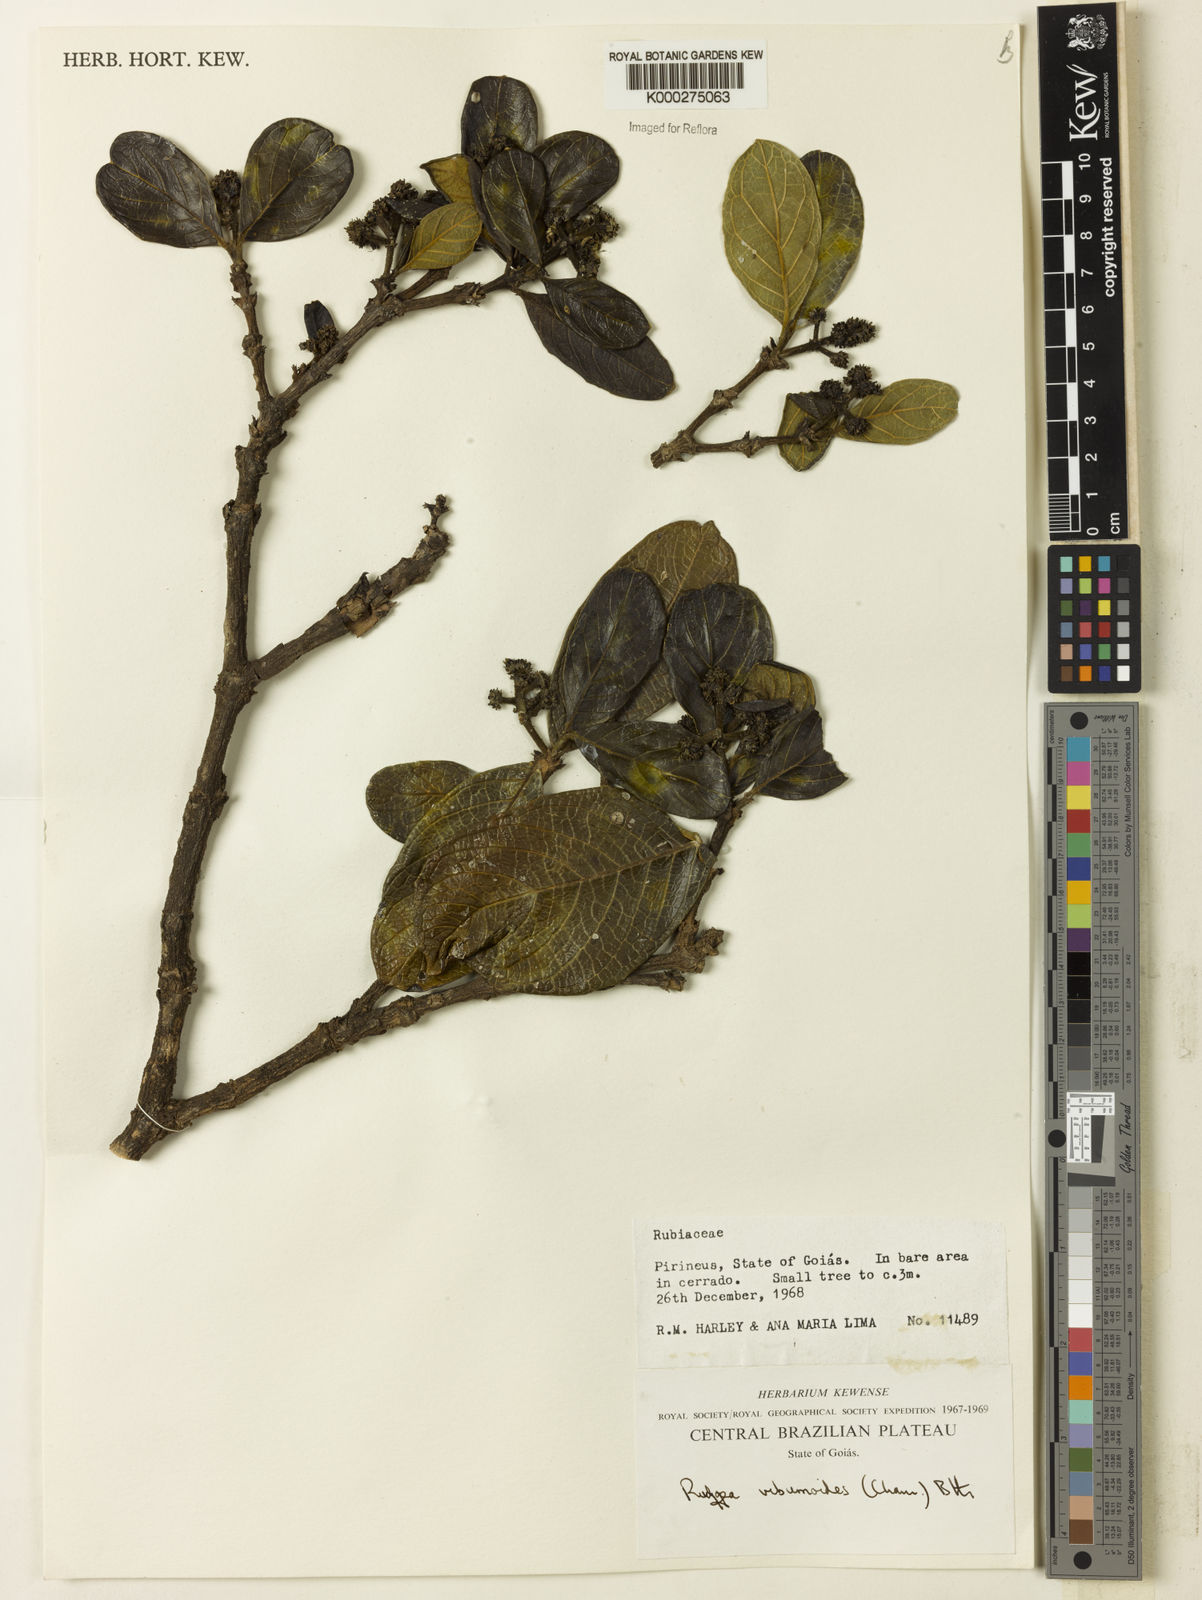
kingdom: Plantae
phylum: Tracheophyta
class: Magnoliopsida
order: Gentianales
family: Rubiaceae
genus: Rudgea
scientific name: Rudgea viburnoides
